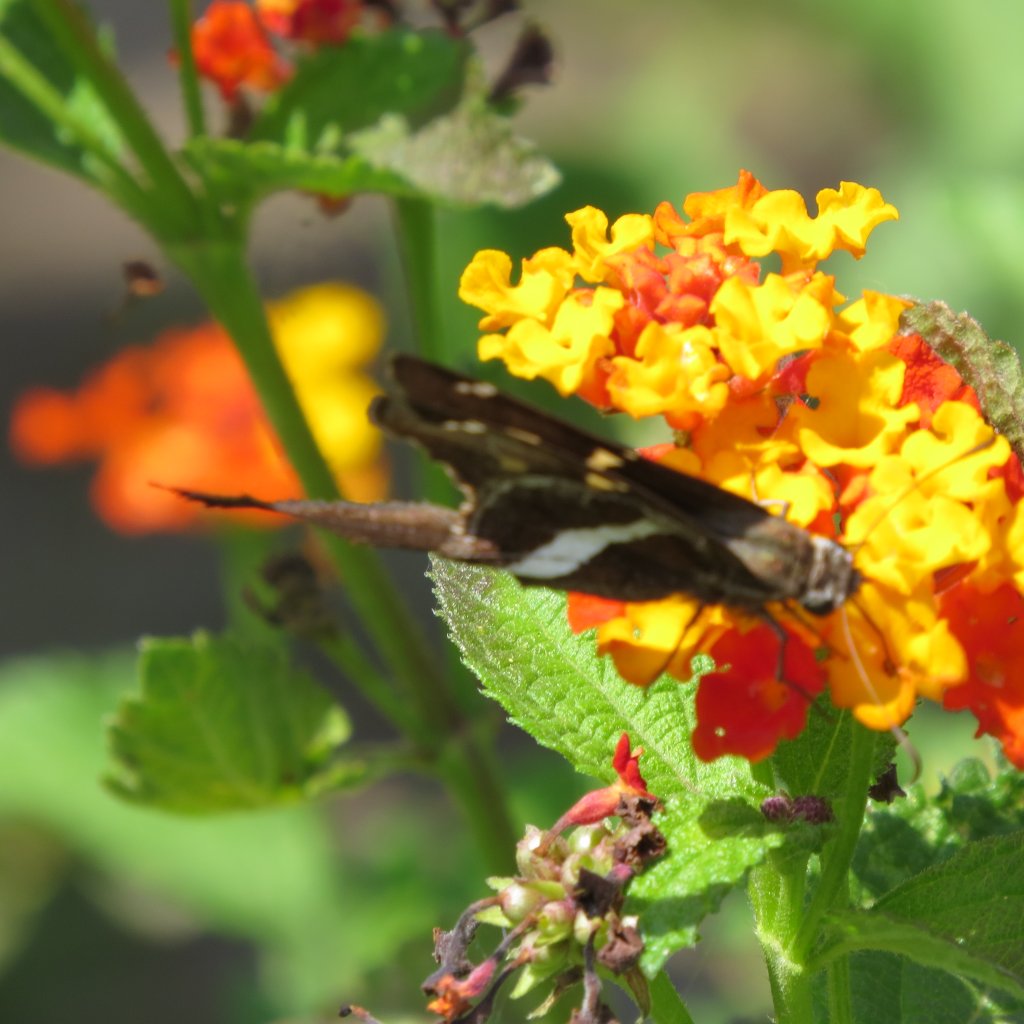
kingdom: Animalia
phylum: Arthropoda
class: Insecta
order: Lepidoptera
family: Hesperiidae
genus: Chioides
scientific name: Chioides catillus
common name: White-striped Longtail
